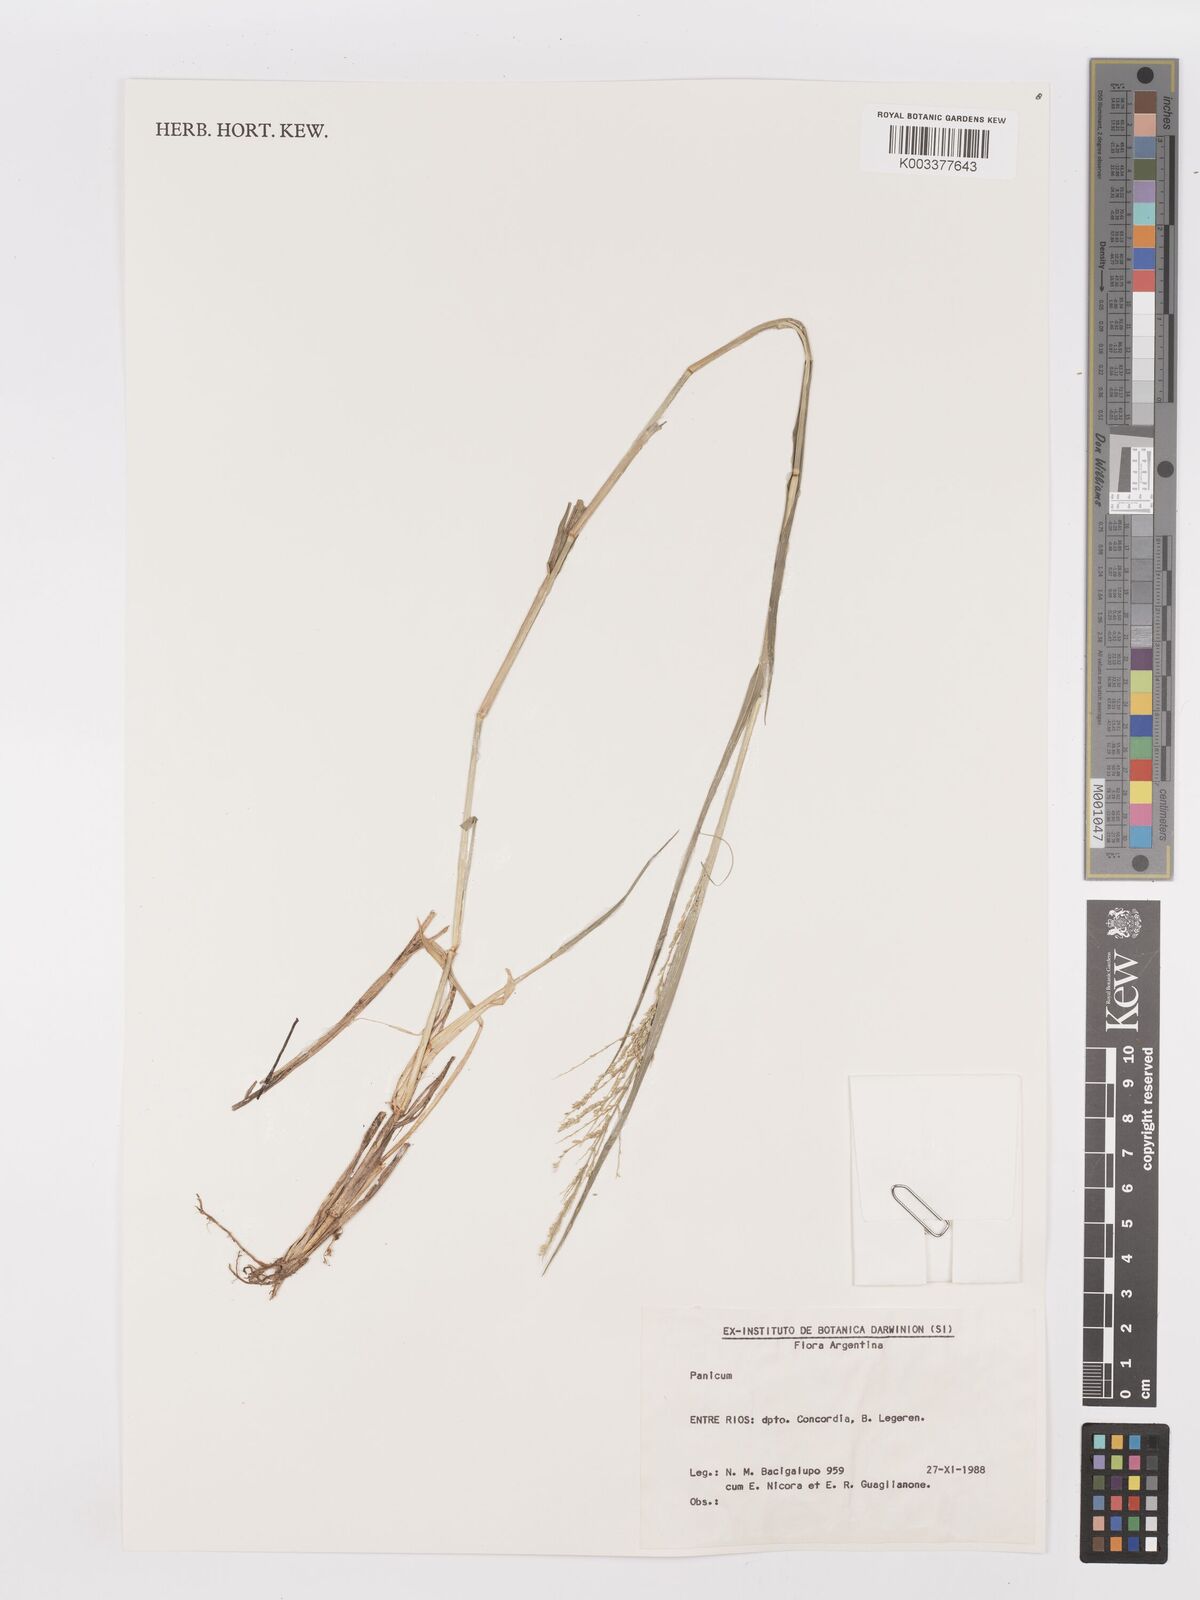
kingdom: Plantae
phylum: Tracheophyta
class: Liliopsida
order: Poales
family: Poaceae
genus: Steinchisma
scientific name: Steinchisma laxum
